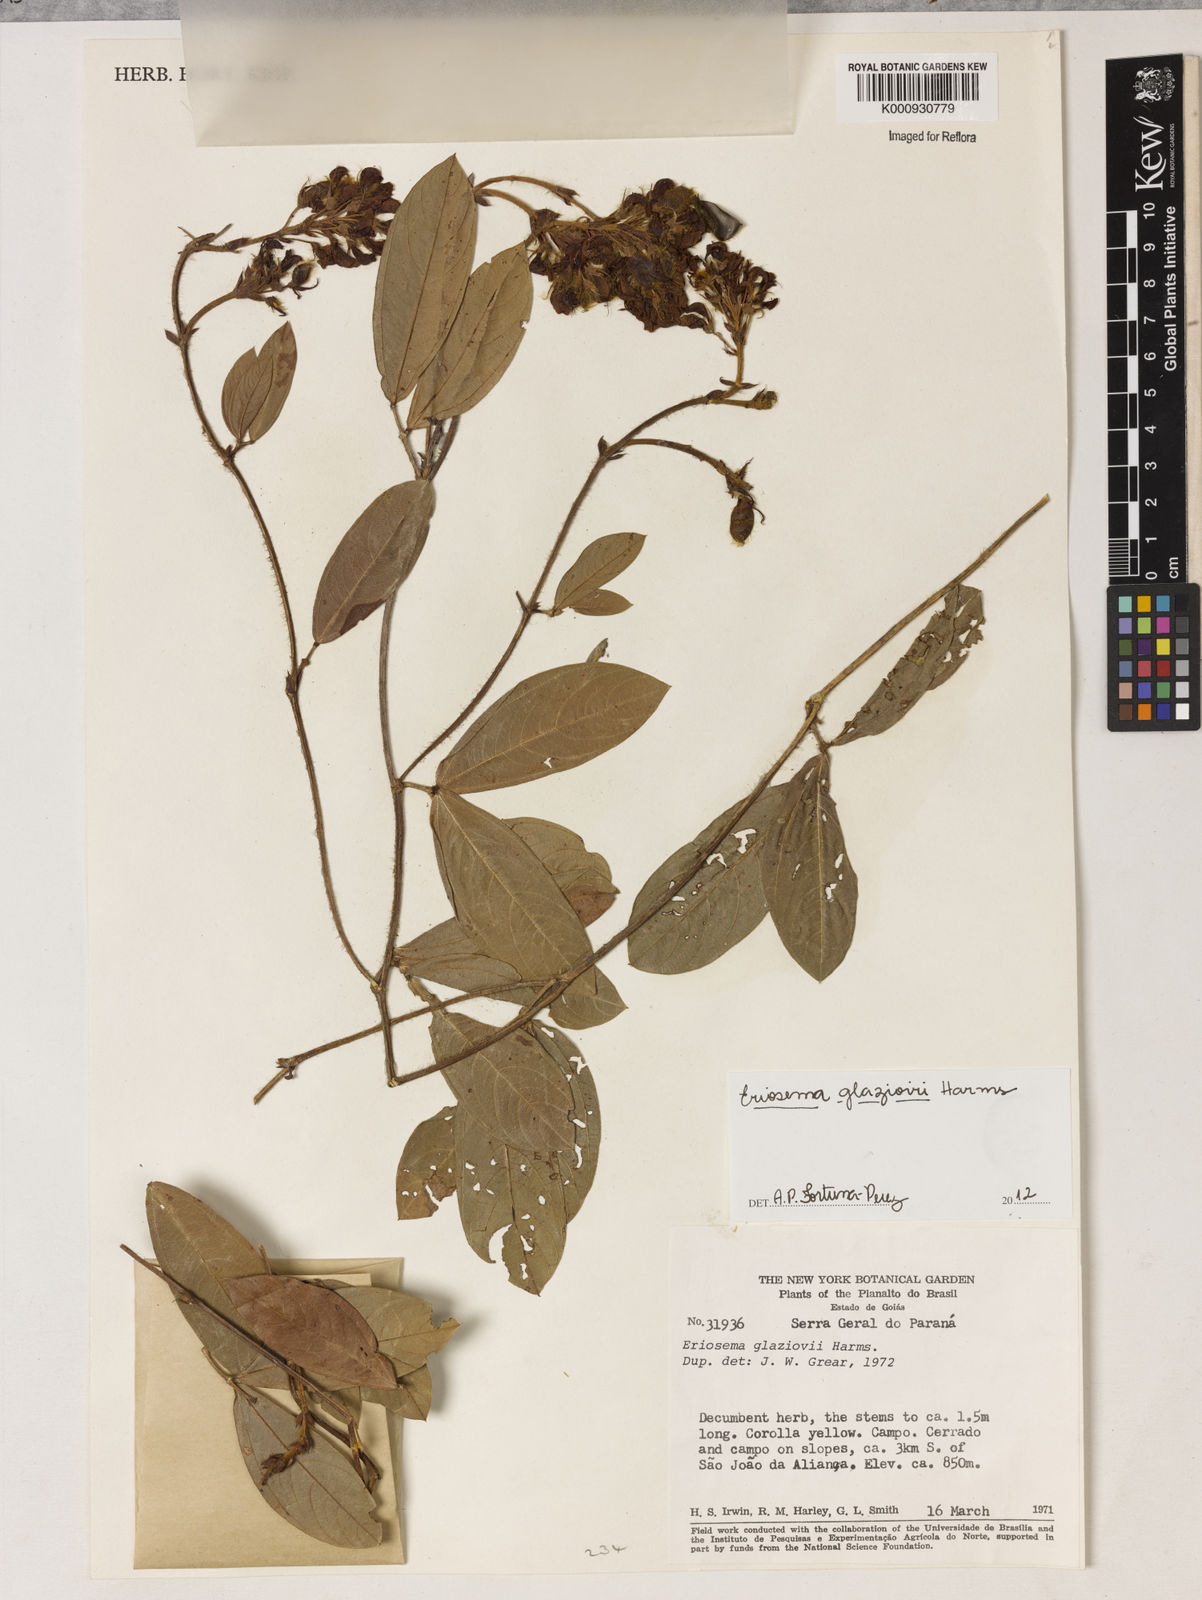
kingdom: Plantae
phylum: Tracheophyta
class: Magnoliopsida
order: Fabales
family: Fabaceae
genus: Eriosema
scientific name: Eriosema glaziovii
